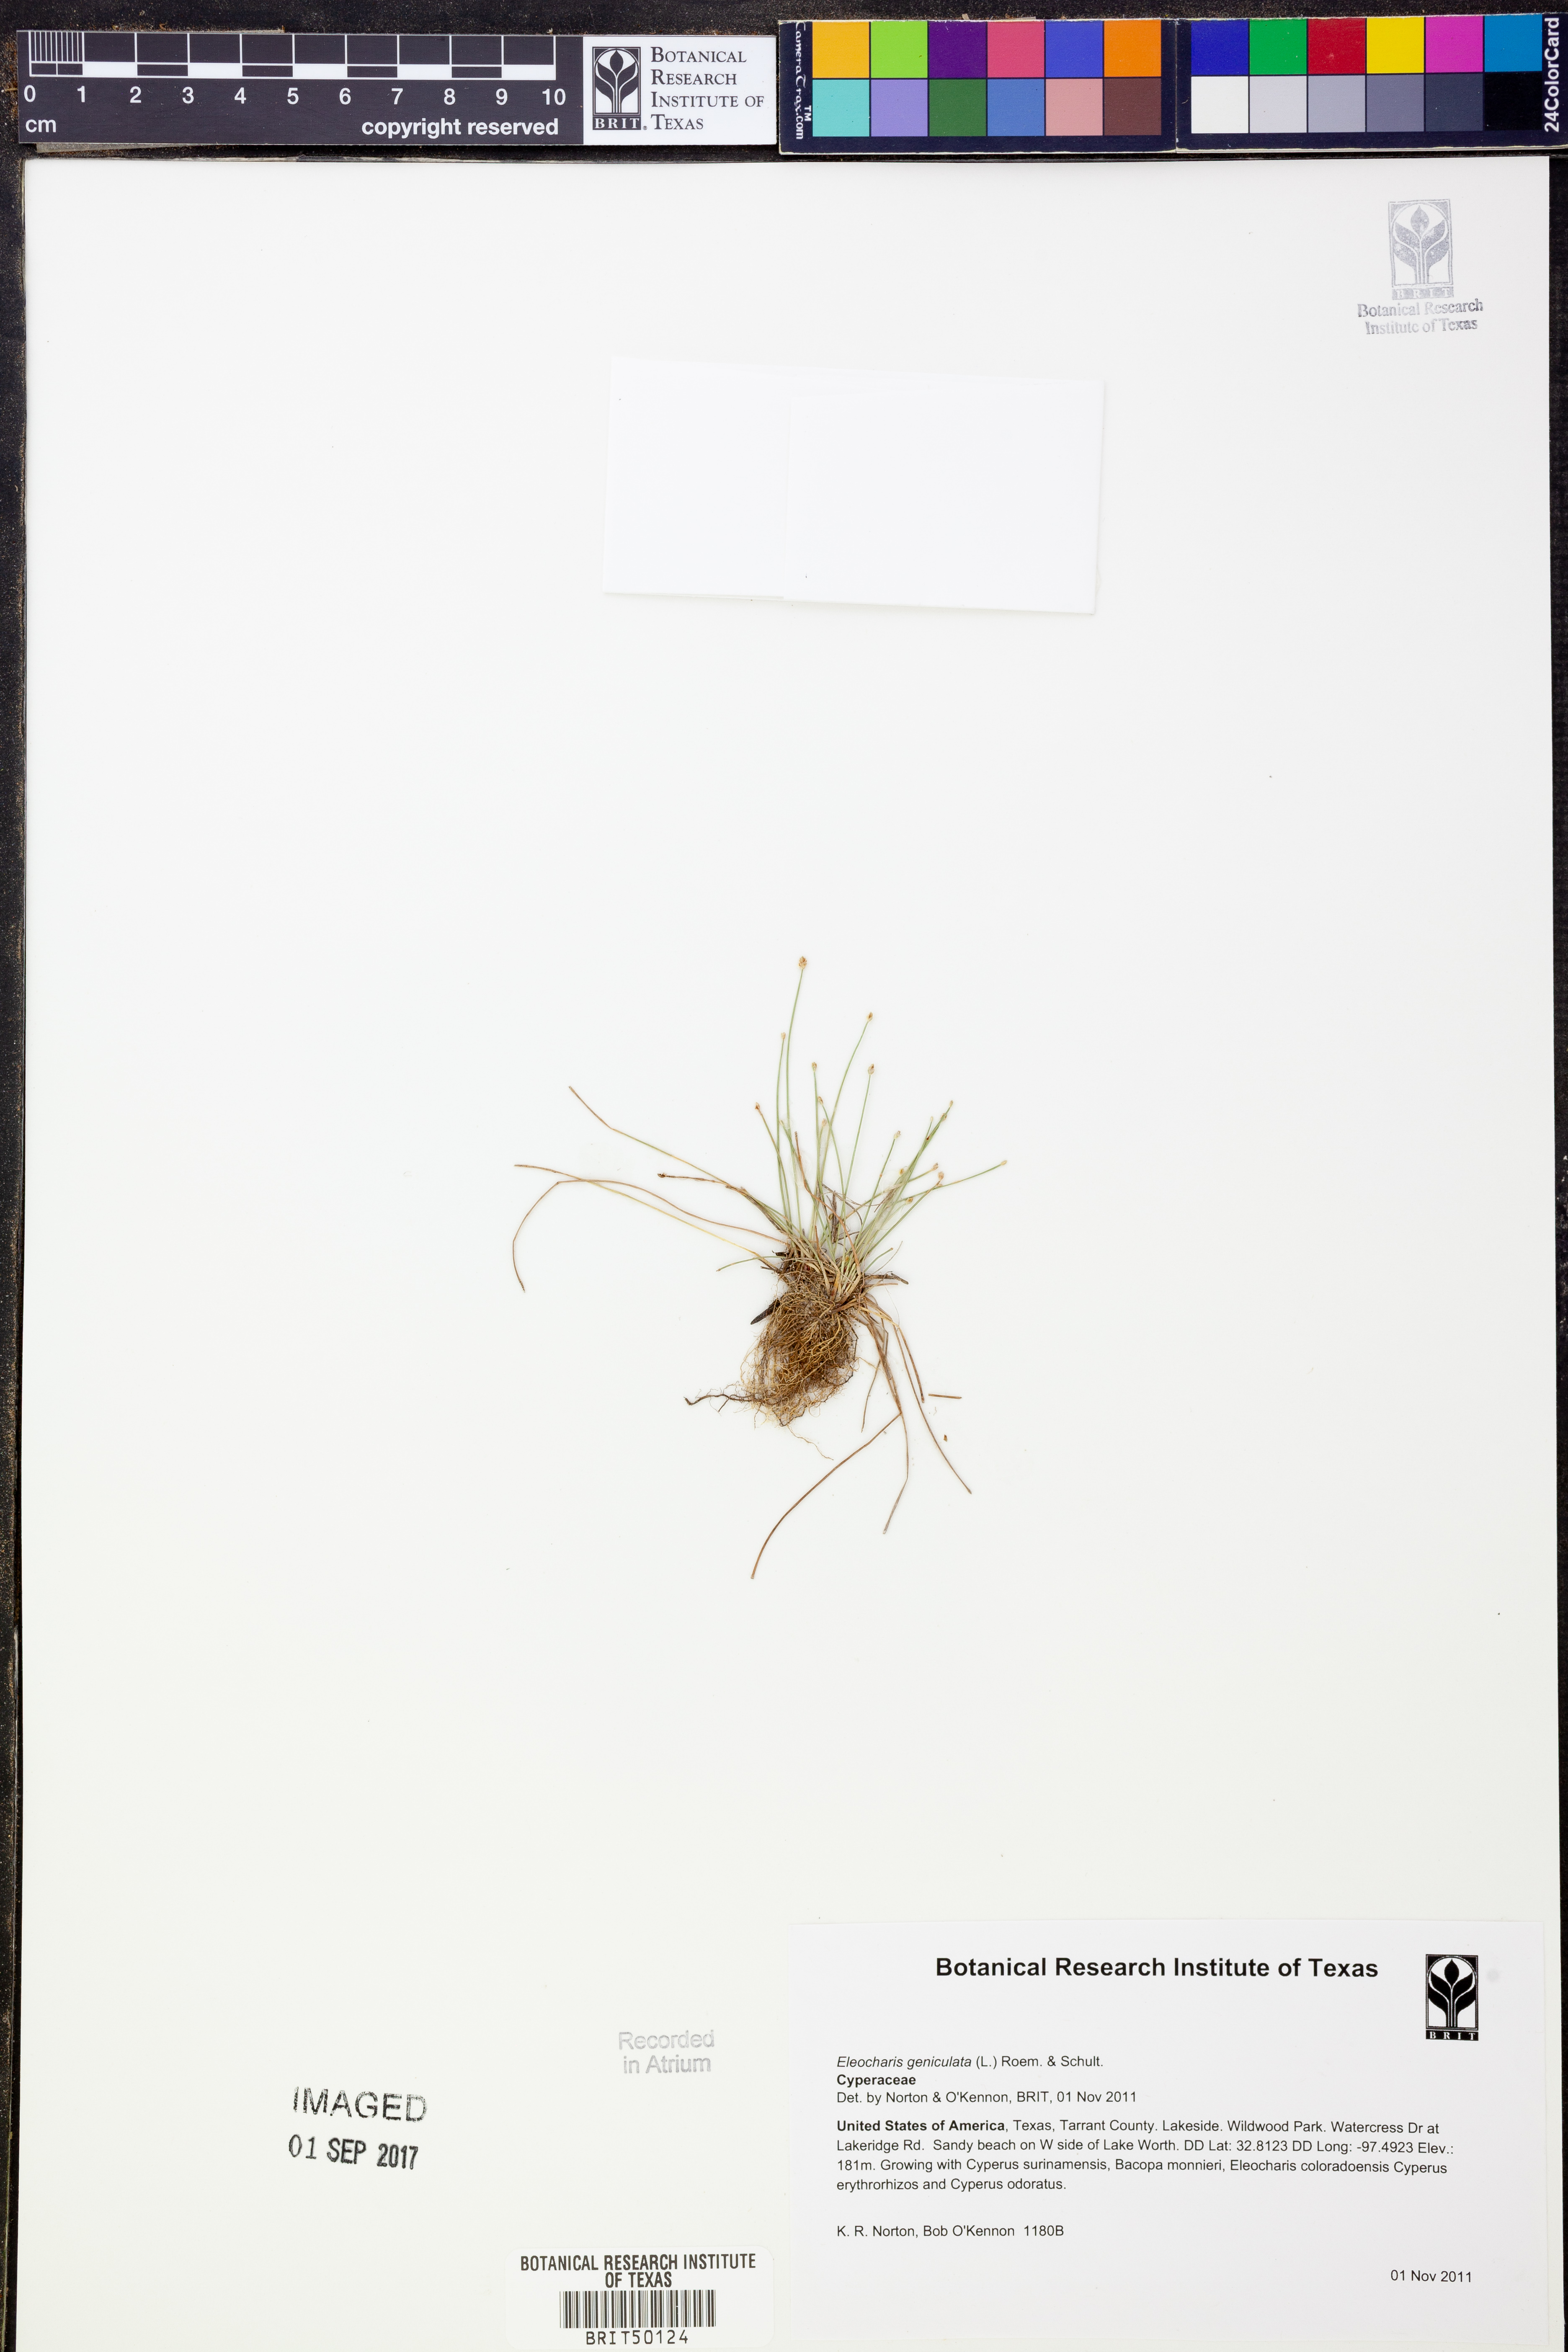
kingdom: Plantae
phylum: Tracheophyta
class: Liliopsida
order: Poales
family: Cyperaceae
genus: Eleocharis
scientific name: Eleocharis geniculata
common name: Canada spikesedge
